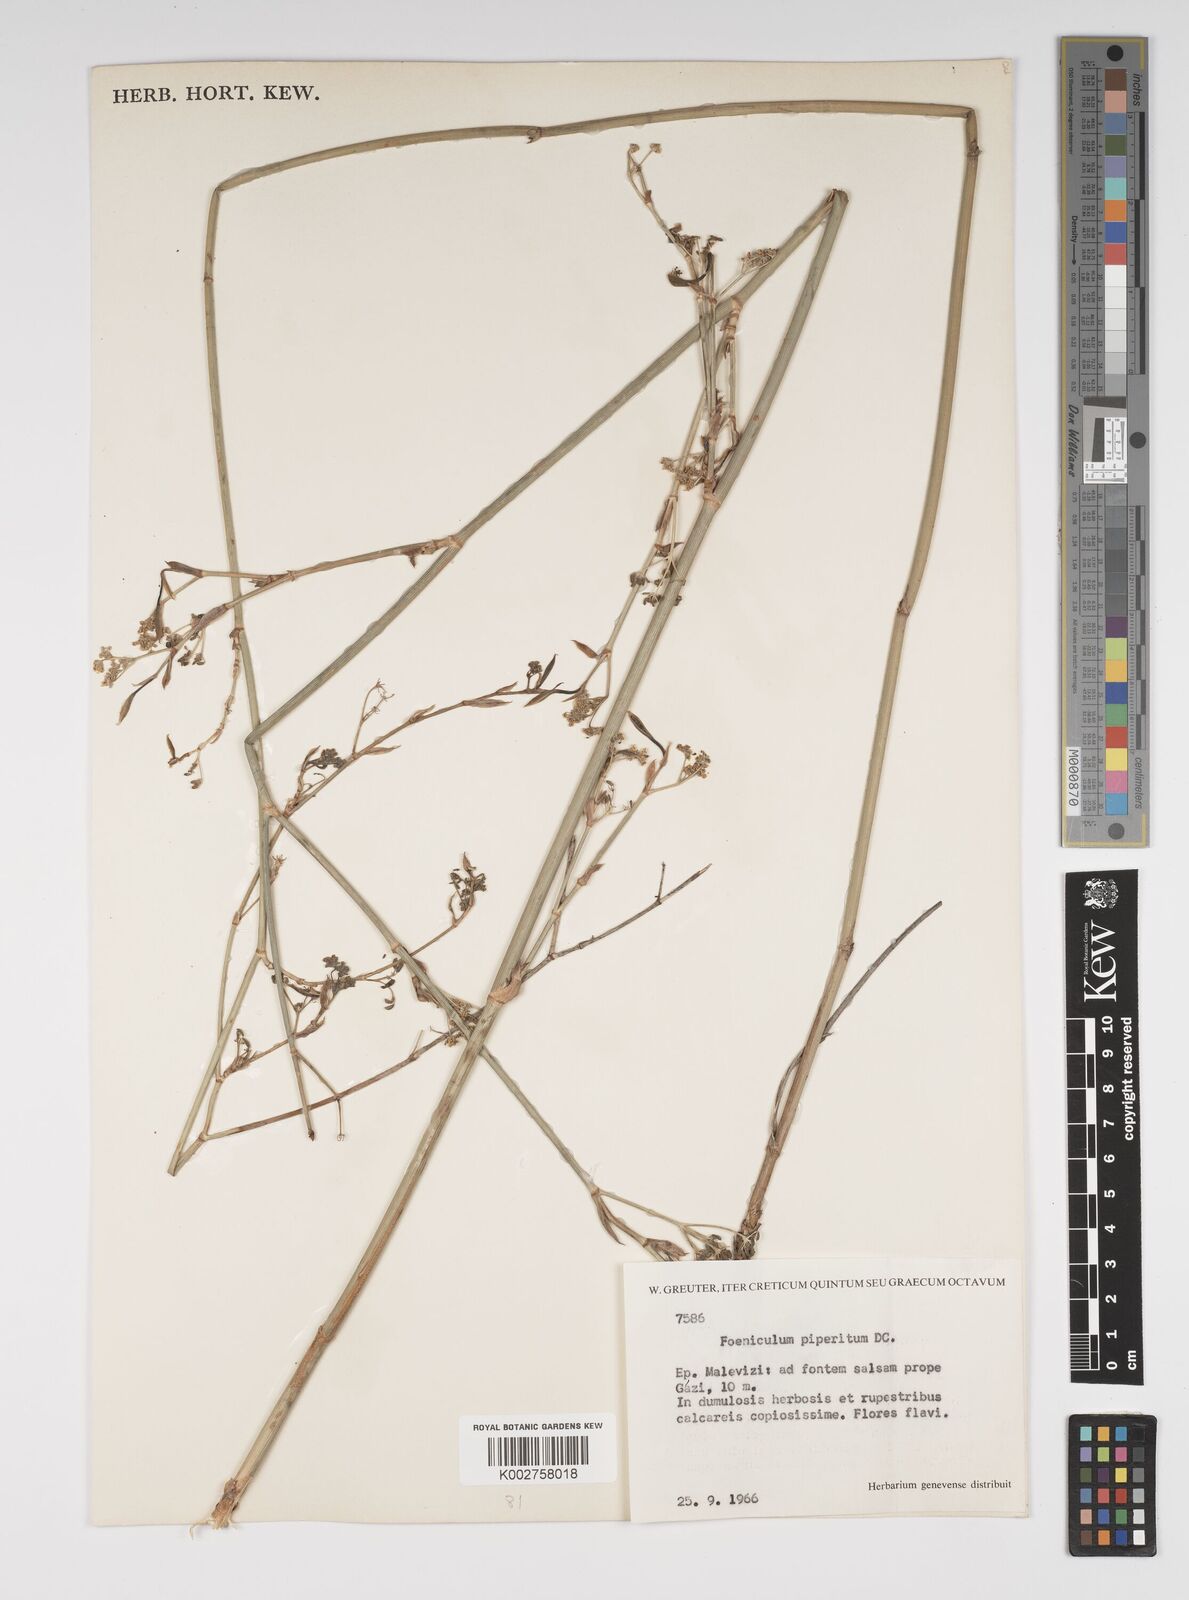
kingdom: Plantae
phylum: Tracheophyta
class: Magnoliopsida
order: Apiales
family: Apiaceae
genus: Foeniculum
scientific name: Foeniculum vulgare
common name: Fennel
